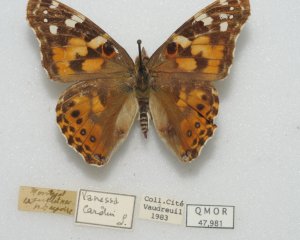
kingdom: Animalia
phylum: Arthropoda
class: Insecta
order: Lepidoptera
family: Nymphalidae
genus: Vanessa
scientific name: Vanessa cardui
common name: Painted Lady
